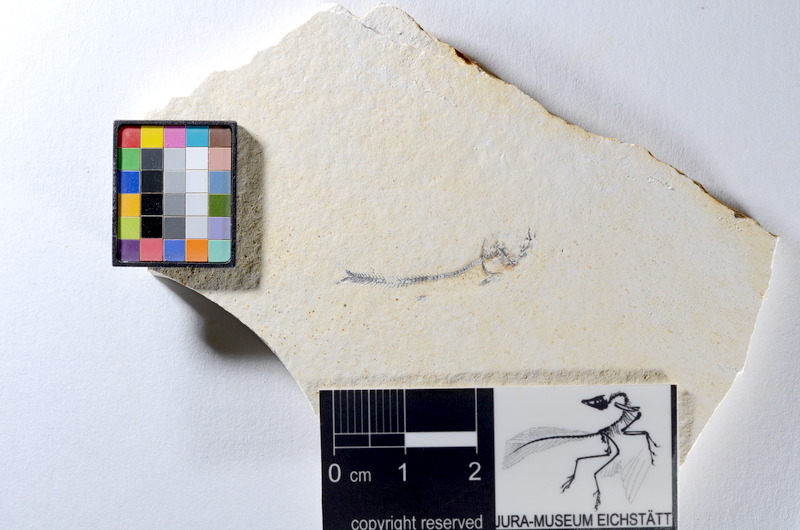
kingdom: Animalia
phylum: Chordata
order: Salmoniformes
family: Orthogonikleithridae
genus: Orthogonikleithrus
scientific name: Orthogonikleithrus hoelli
